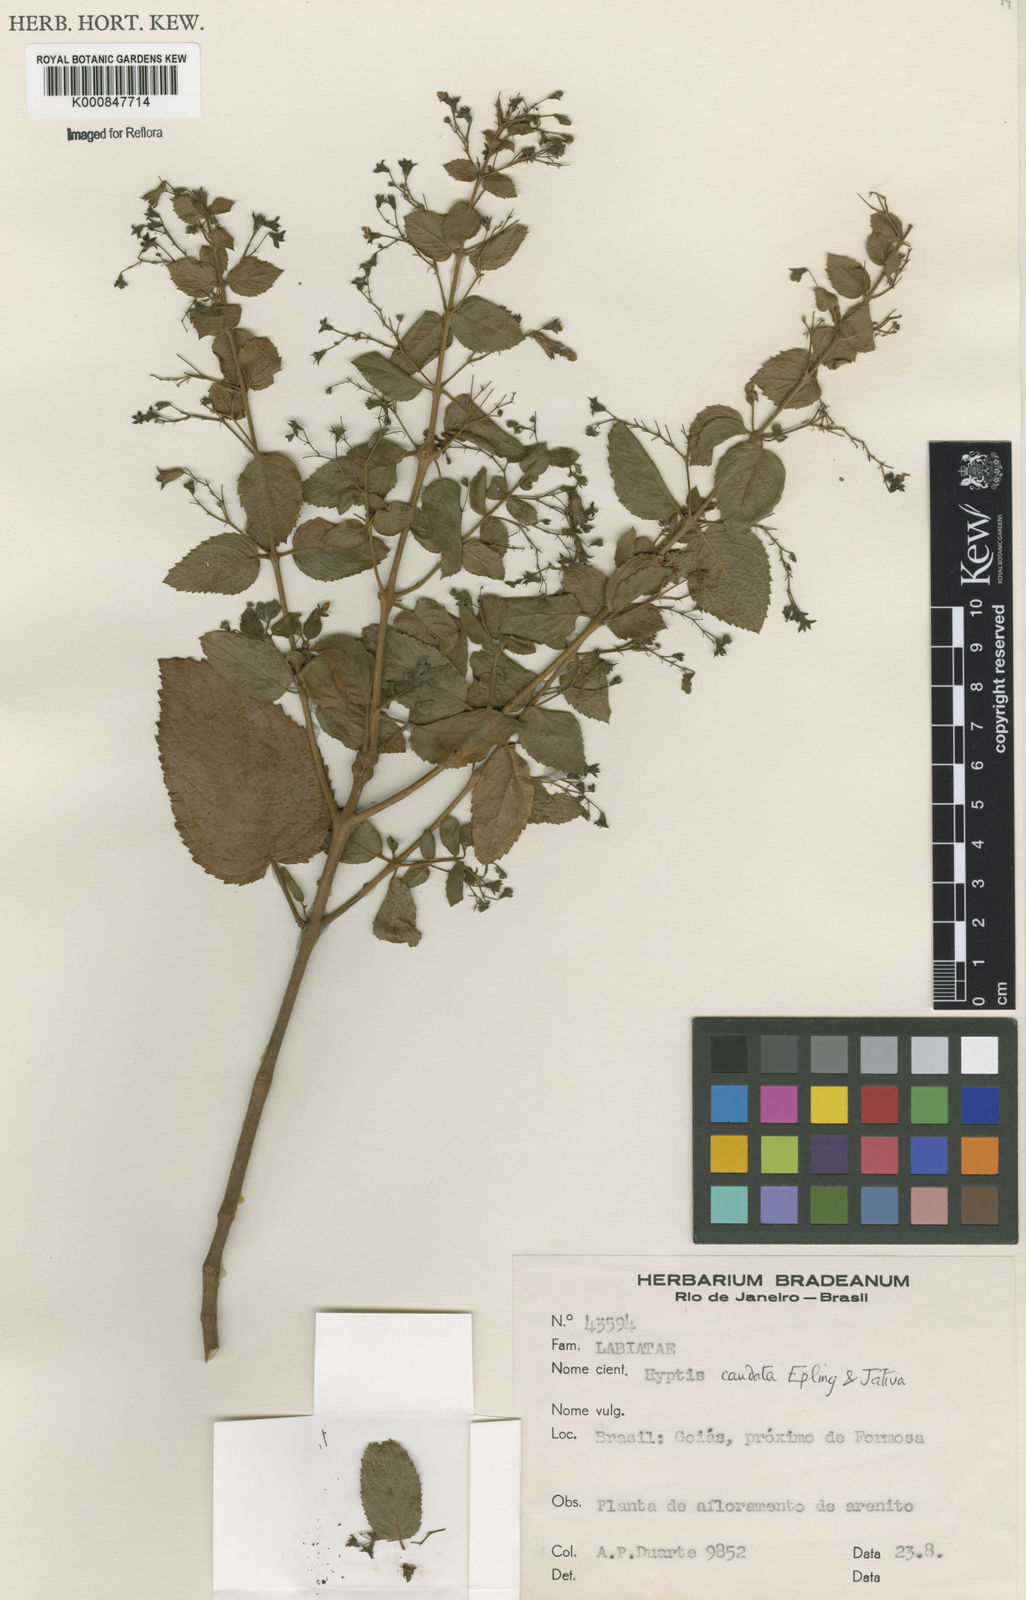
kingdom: Plantae
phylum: Tracheophyta
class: Magnoliopsida
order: Lamiales
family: Lamiaceae
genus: Hyptidendron
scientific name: Hyptidendron
